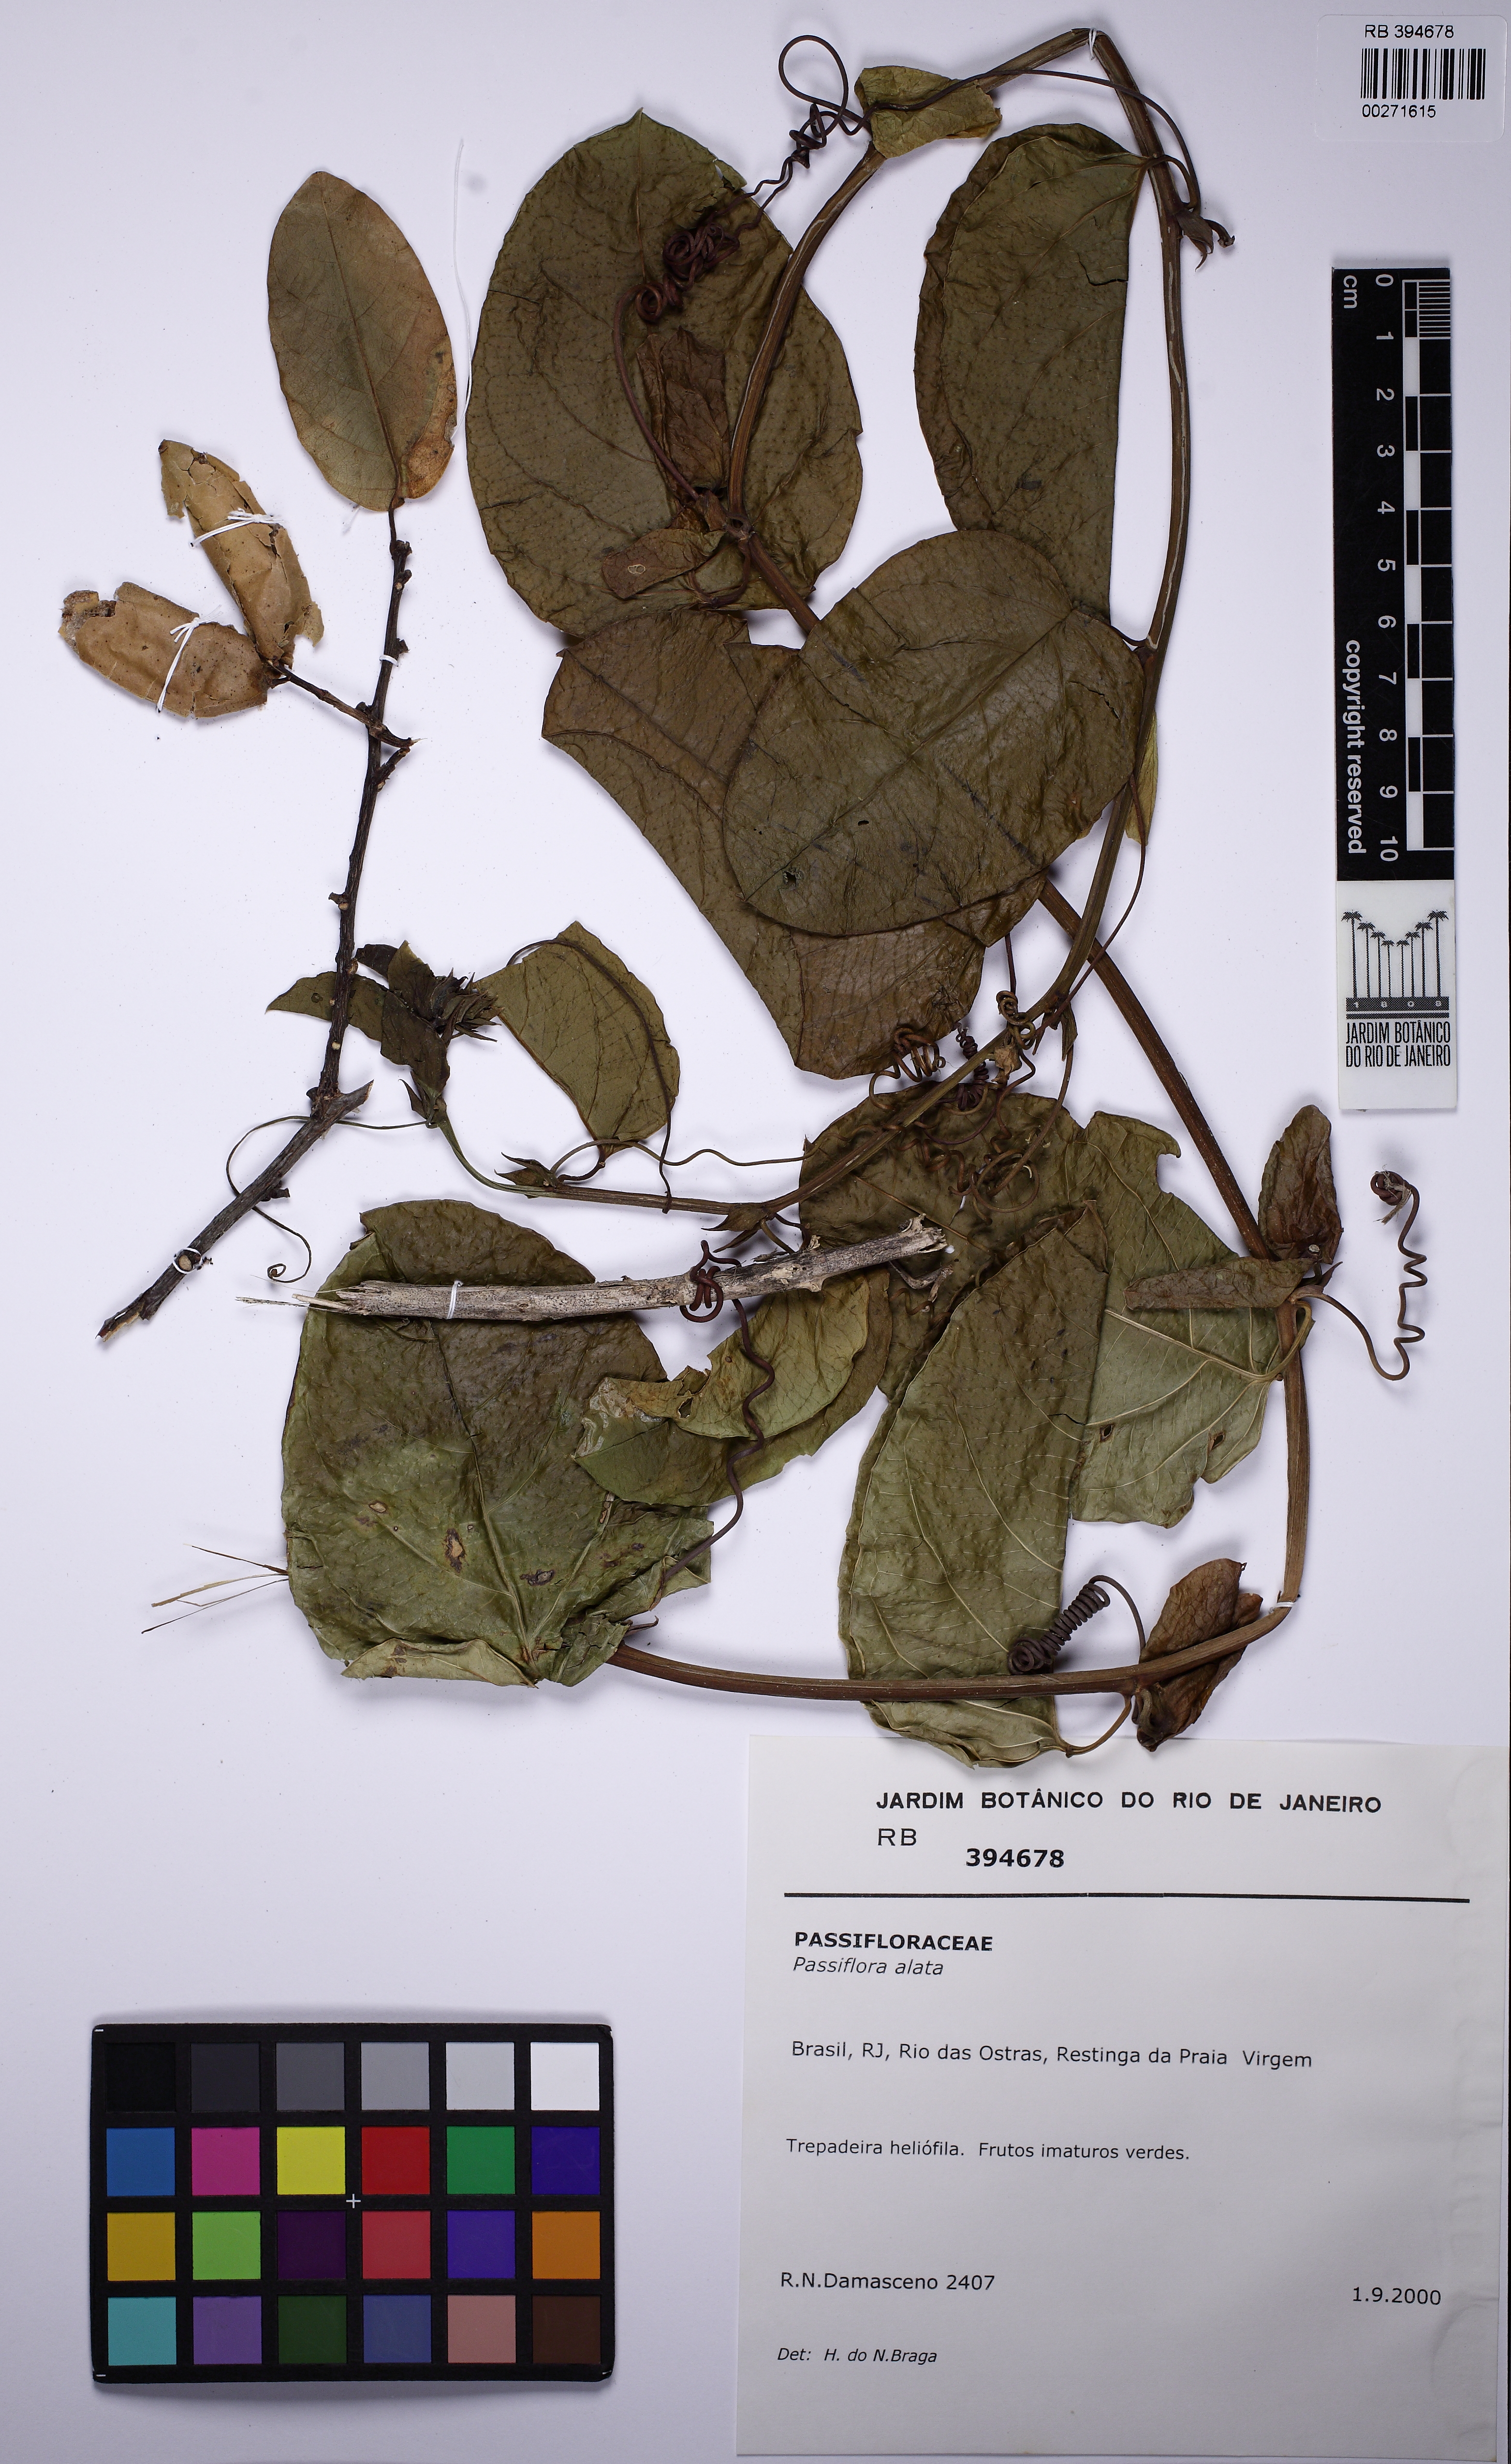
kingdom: Plantae
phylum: Tracheophyta
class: Magnoliopsida
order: Malpighiales
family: Passifloraceae
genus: Passiflora
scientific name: Passiflora alata
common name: Wing-stemmed passion flower
